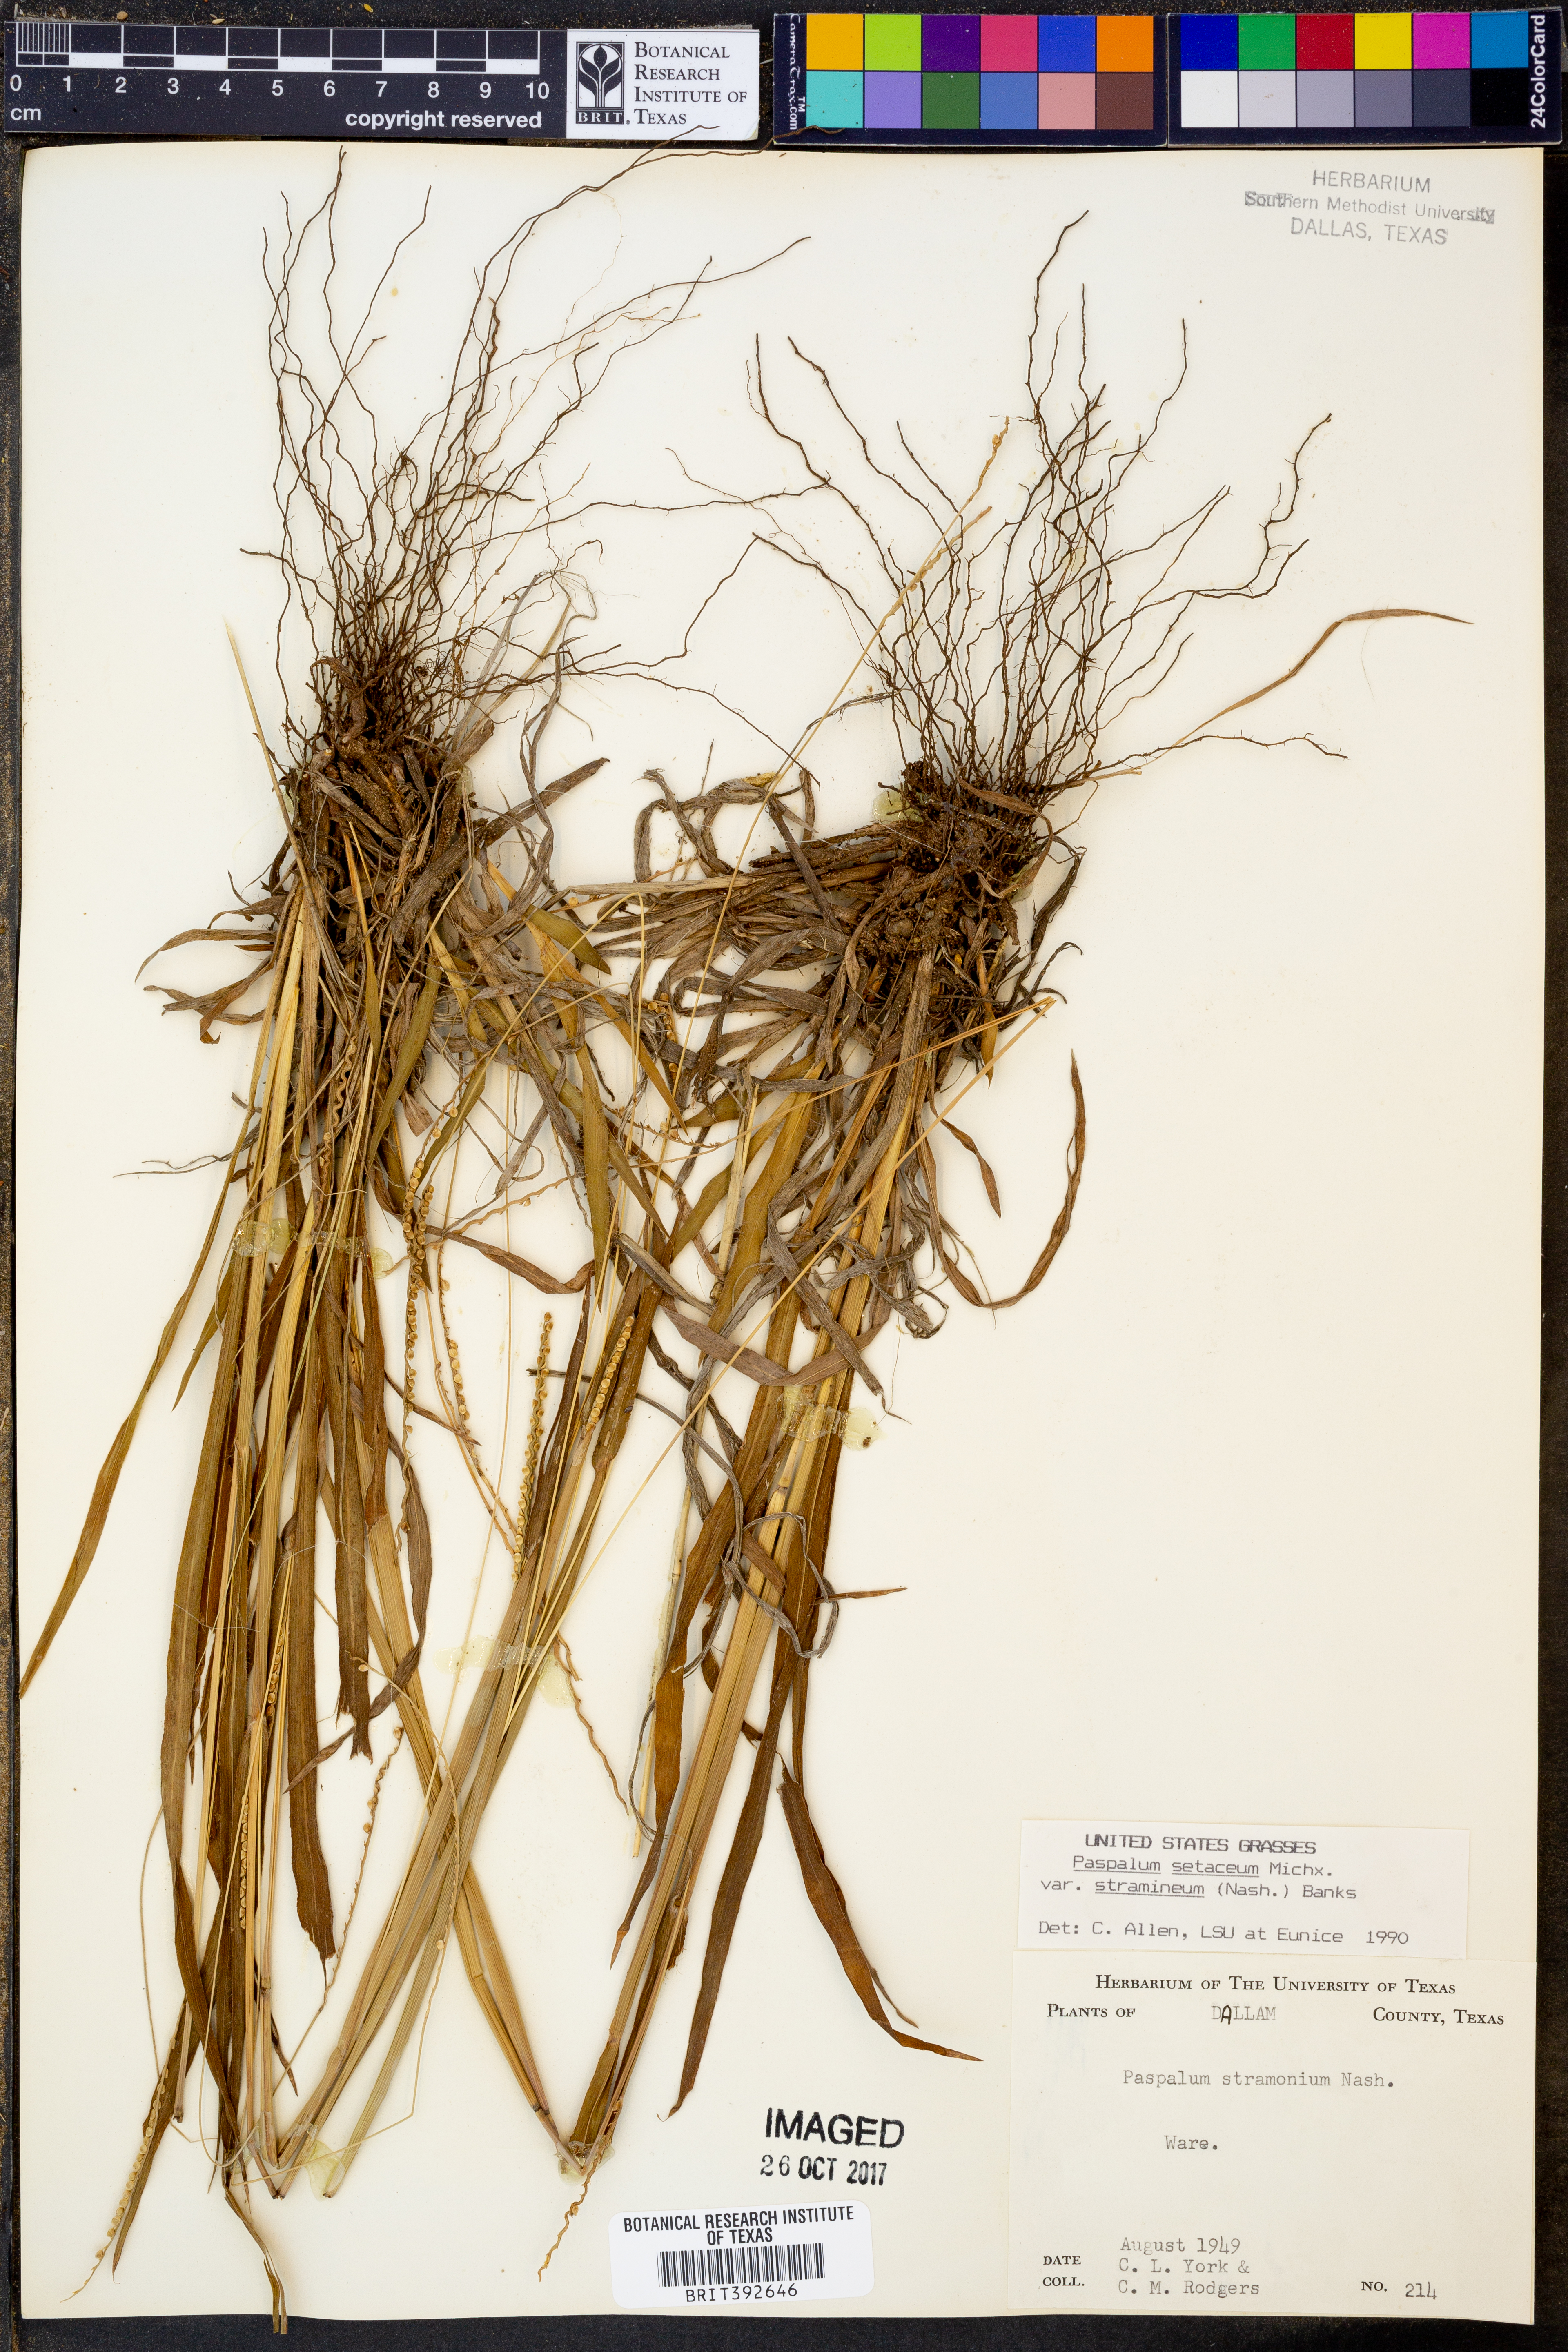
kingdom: Plantae
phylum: Tracheophyta
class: Liliopsida
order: Poales
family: Poaceae
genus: Paspalum
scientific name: Paspalum setaceum
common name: Slender paspalum
